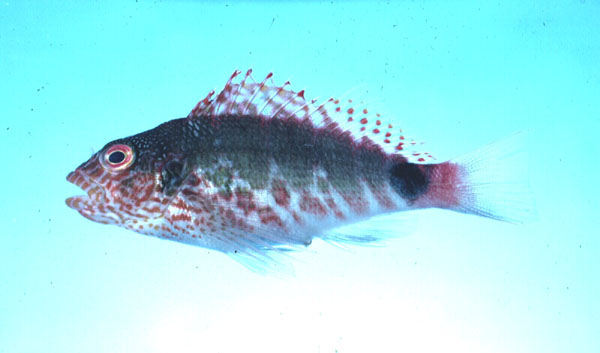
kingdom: Animalia
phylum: Chordata
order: Perciformes
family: Cirrhitidae
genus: Cirrhitops
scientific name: Cirrhitops fasciatus
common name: Redbarred hawkfish
